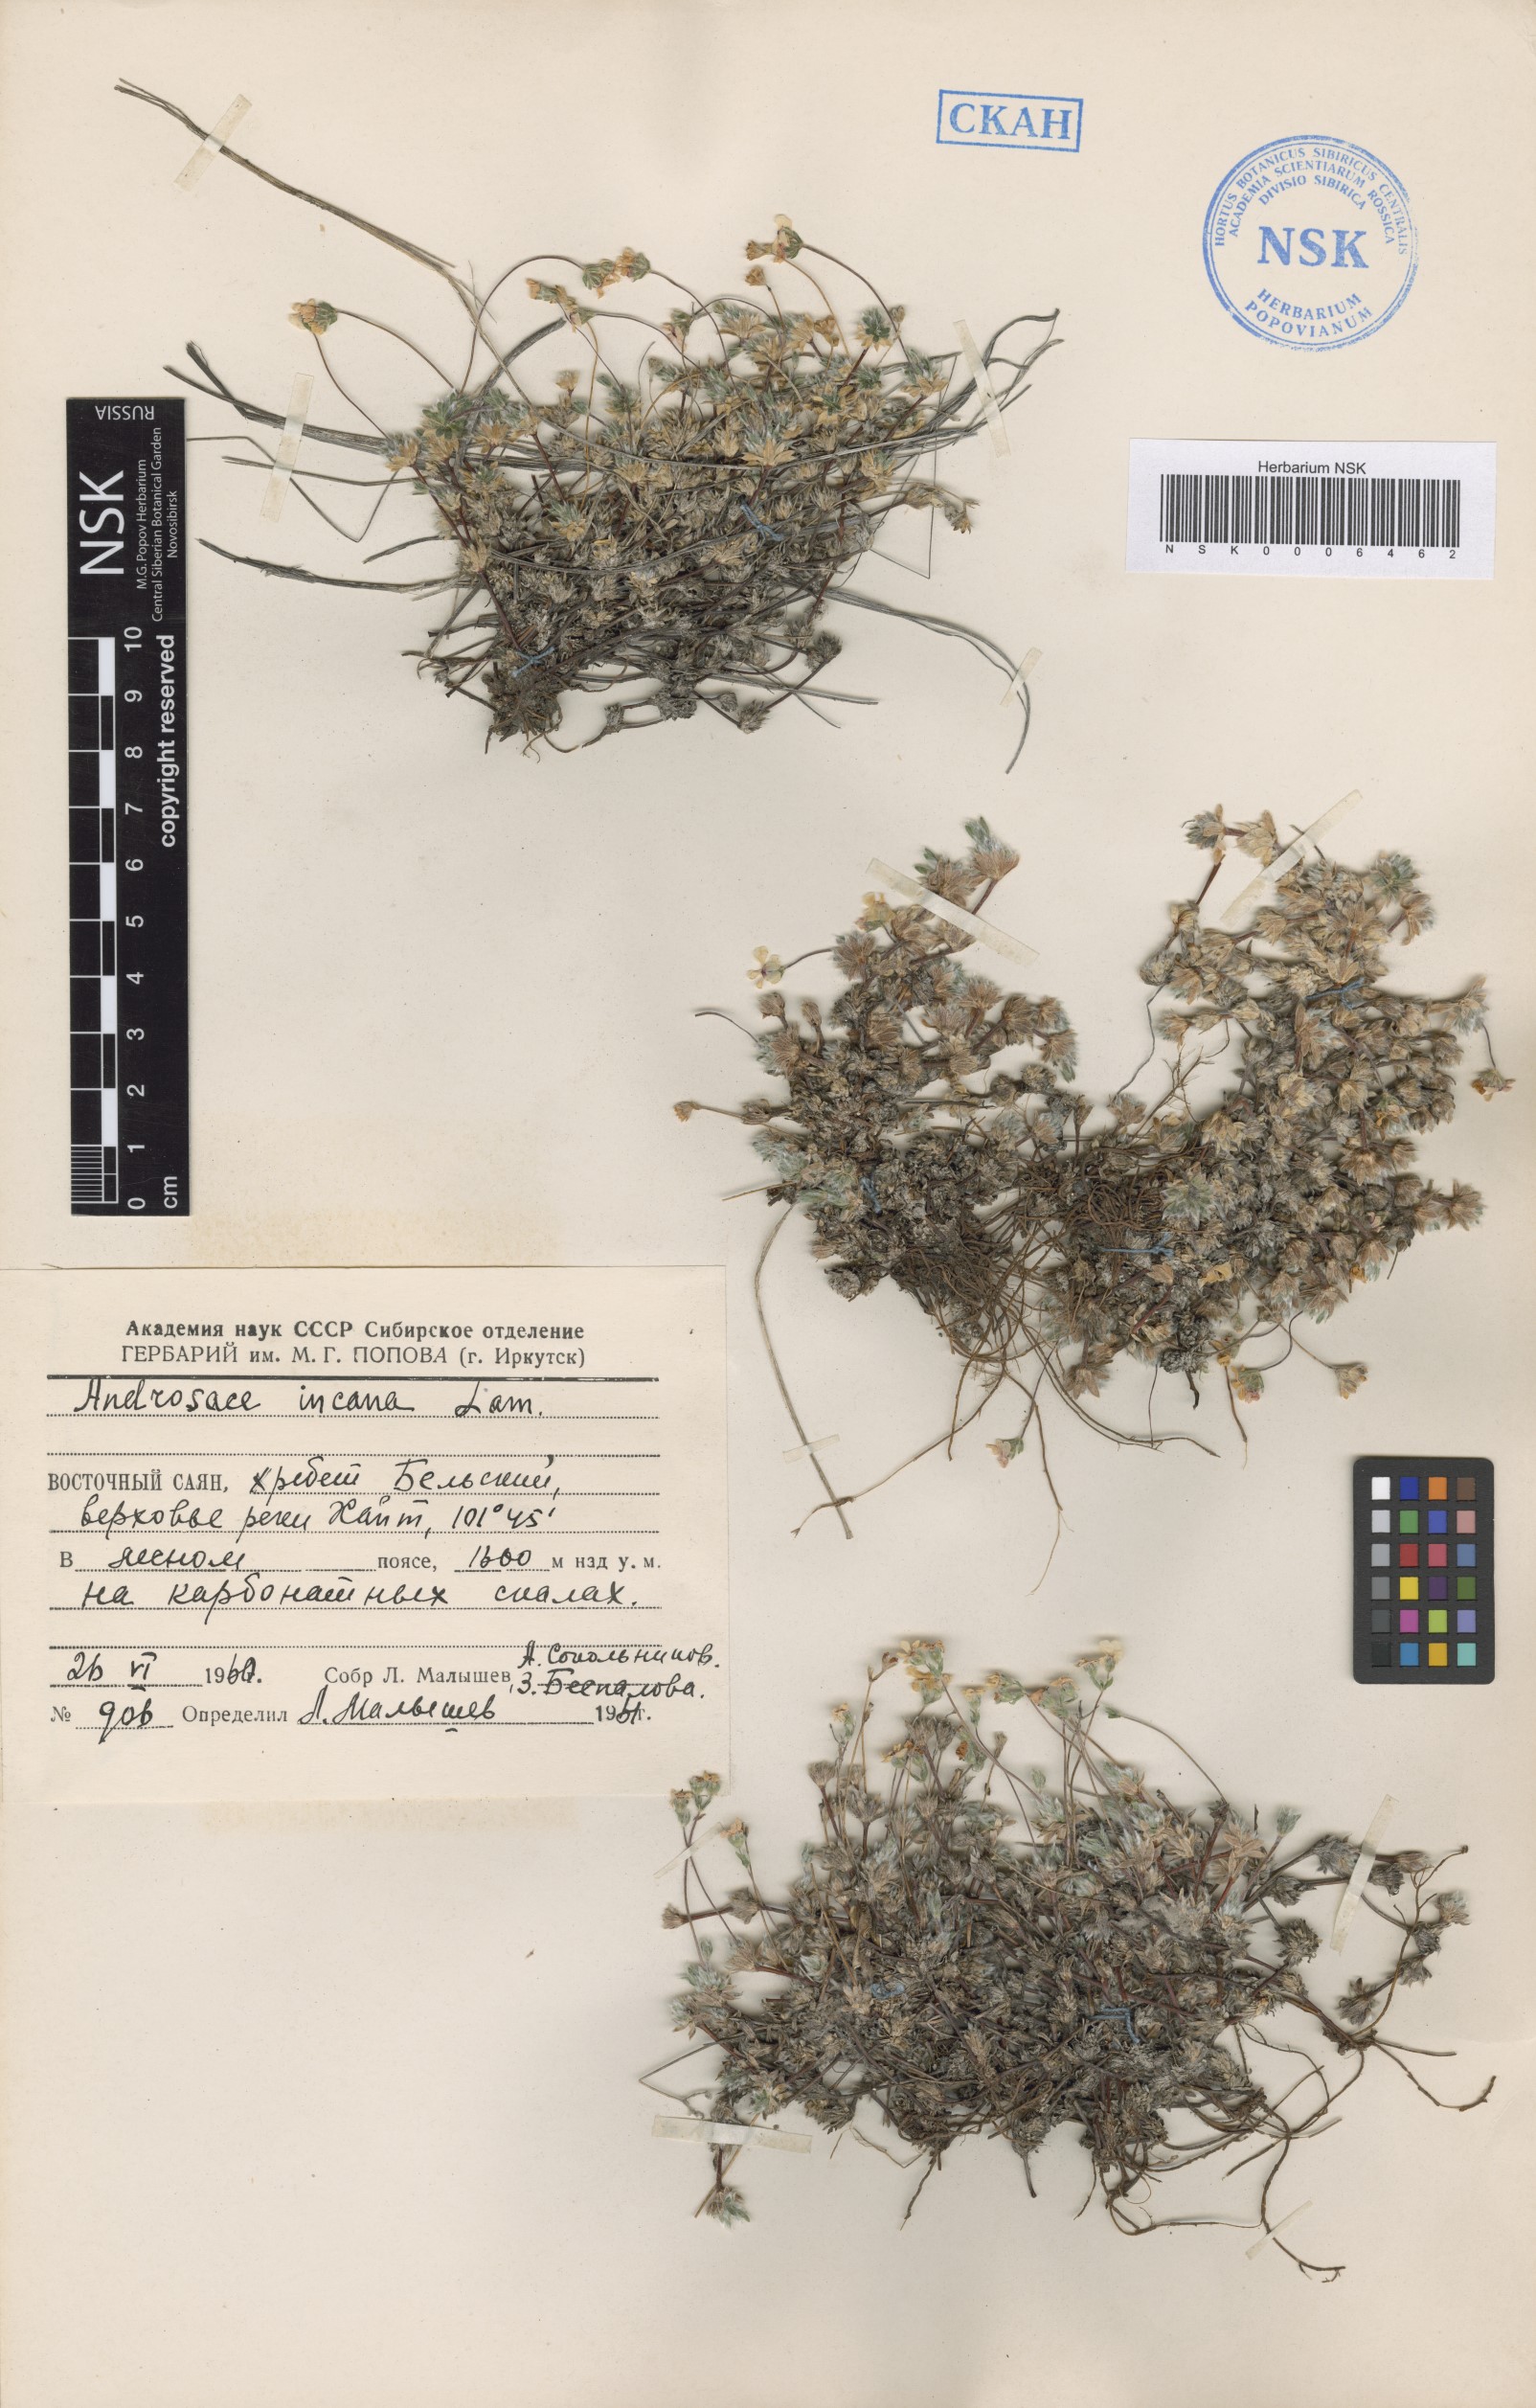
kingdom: Plantae
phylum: Tracheophyta
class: Magnoliopsida
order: Ericales
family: Primulaceae
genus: Androsace
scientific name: Androsace incana
